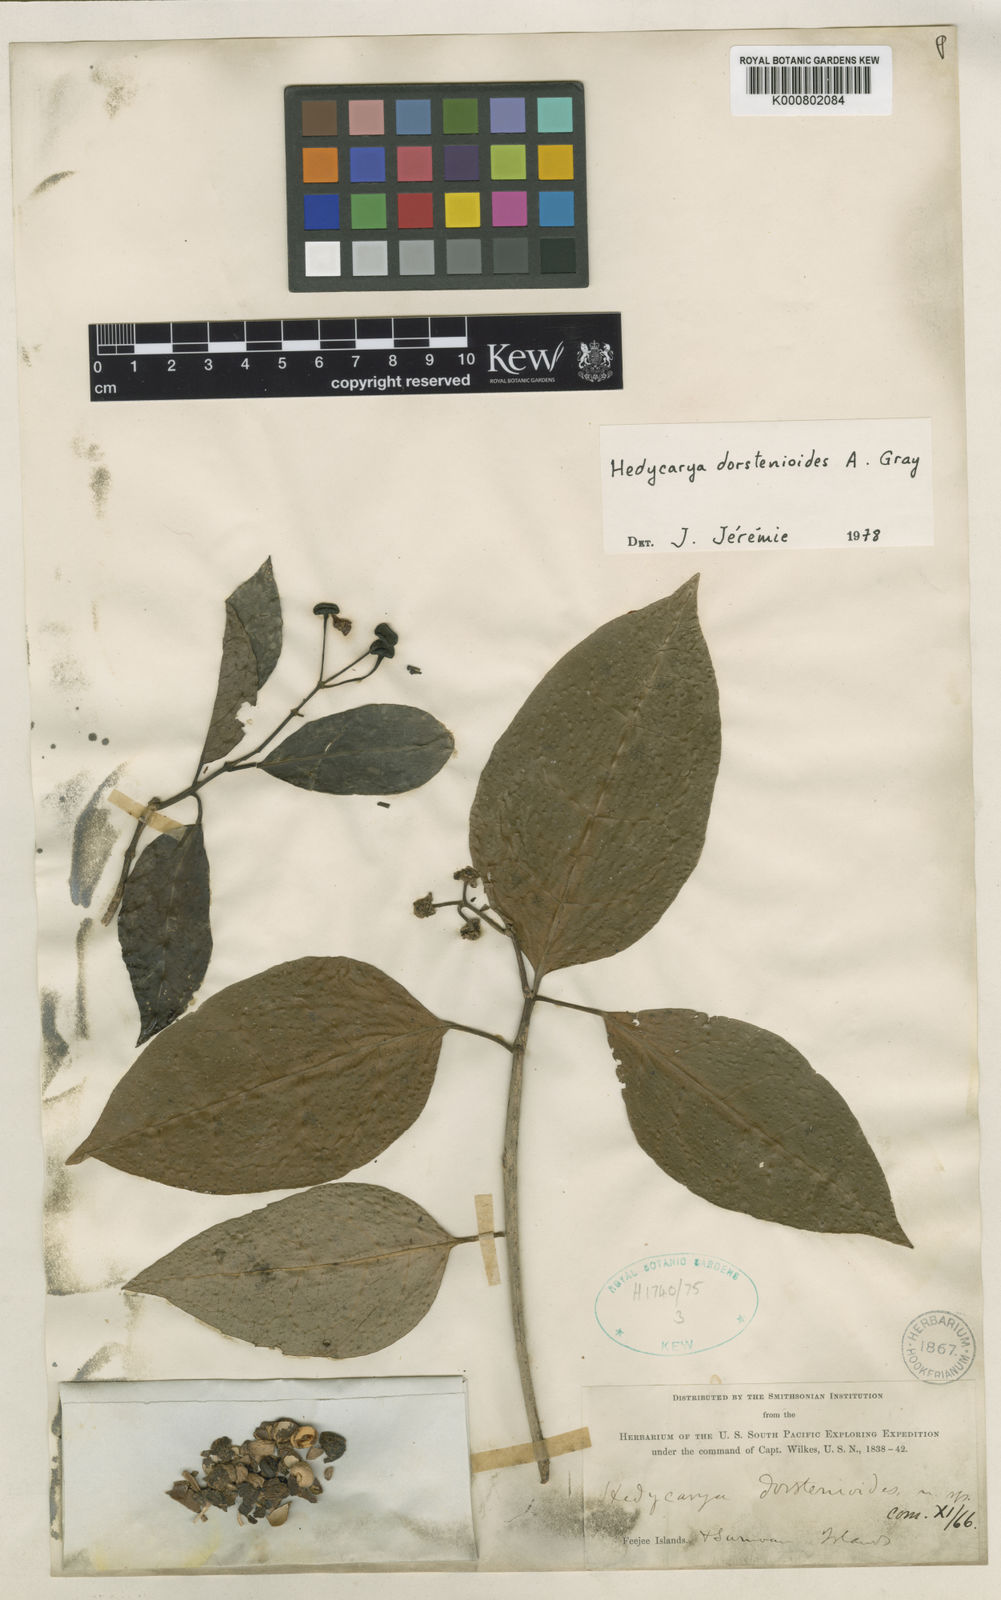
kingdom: Plantae
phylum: Tracheophyta
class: Magnoliopsida
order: Laurales
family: Monimiaceae
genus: Hedycarya
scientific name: Hedycarya dorstenioides
